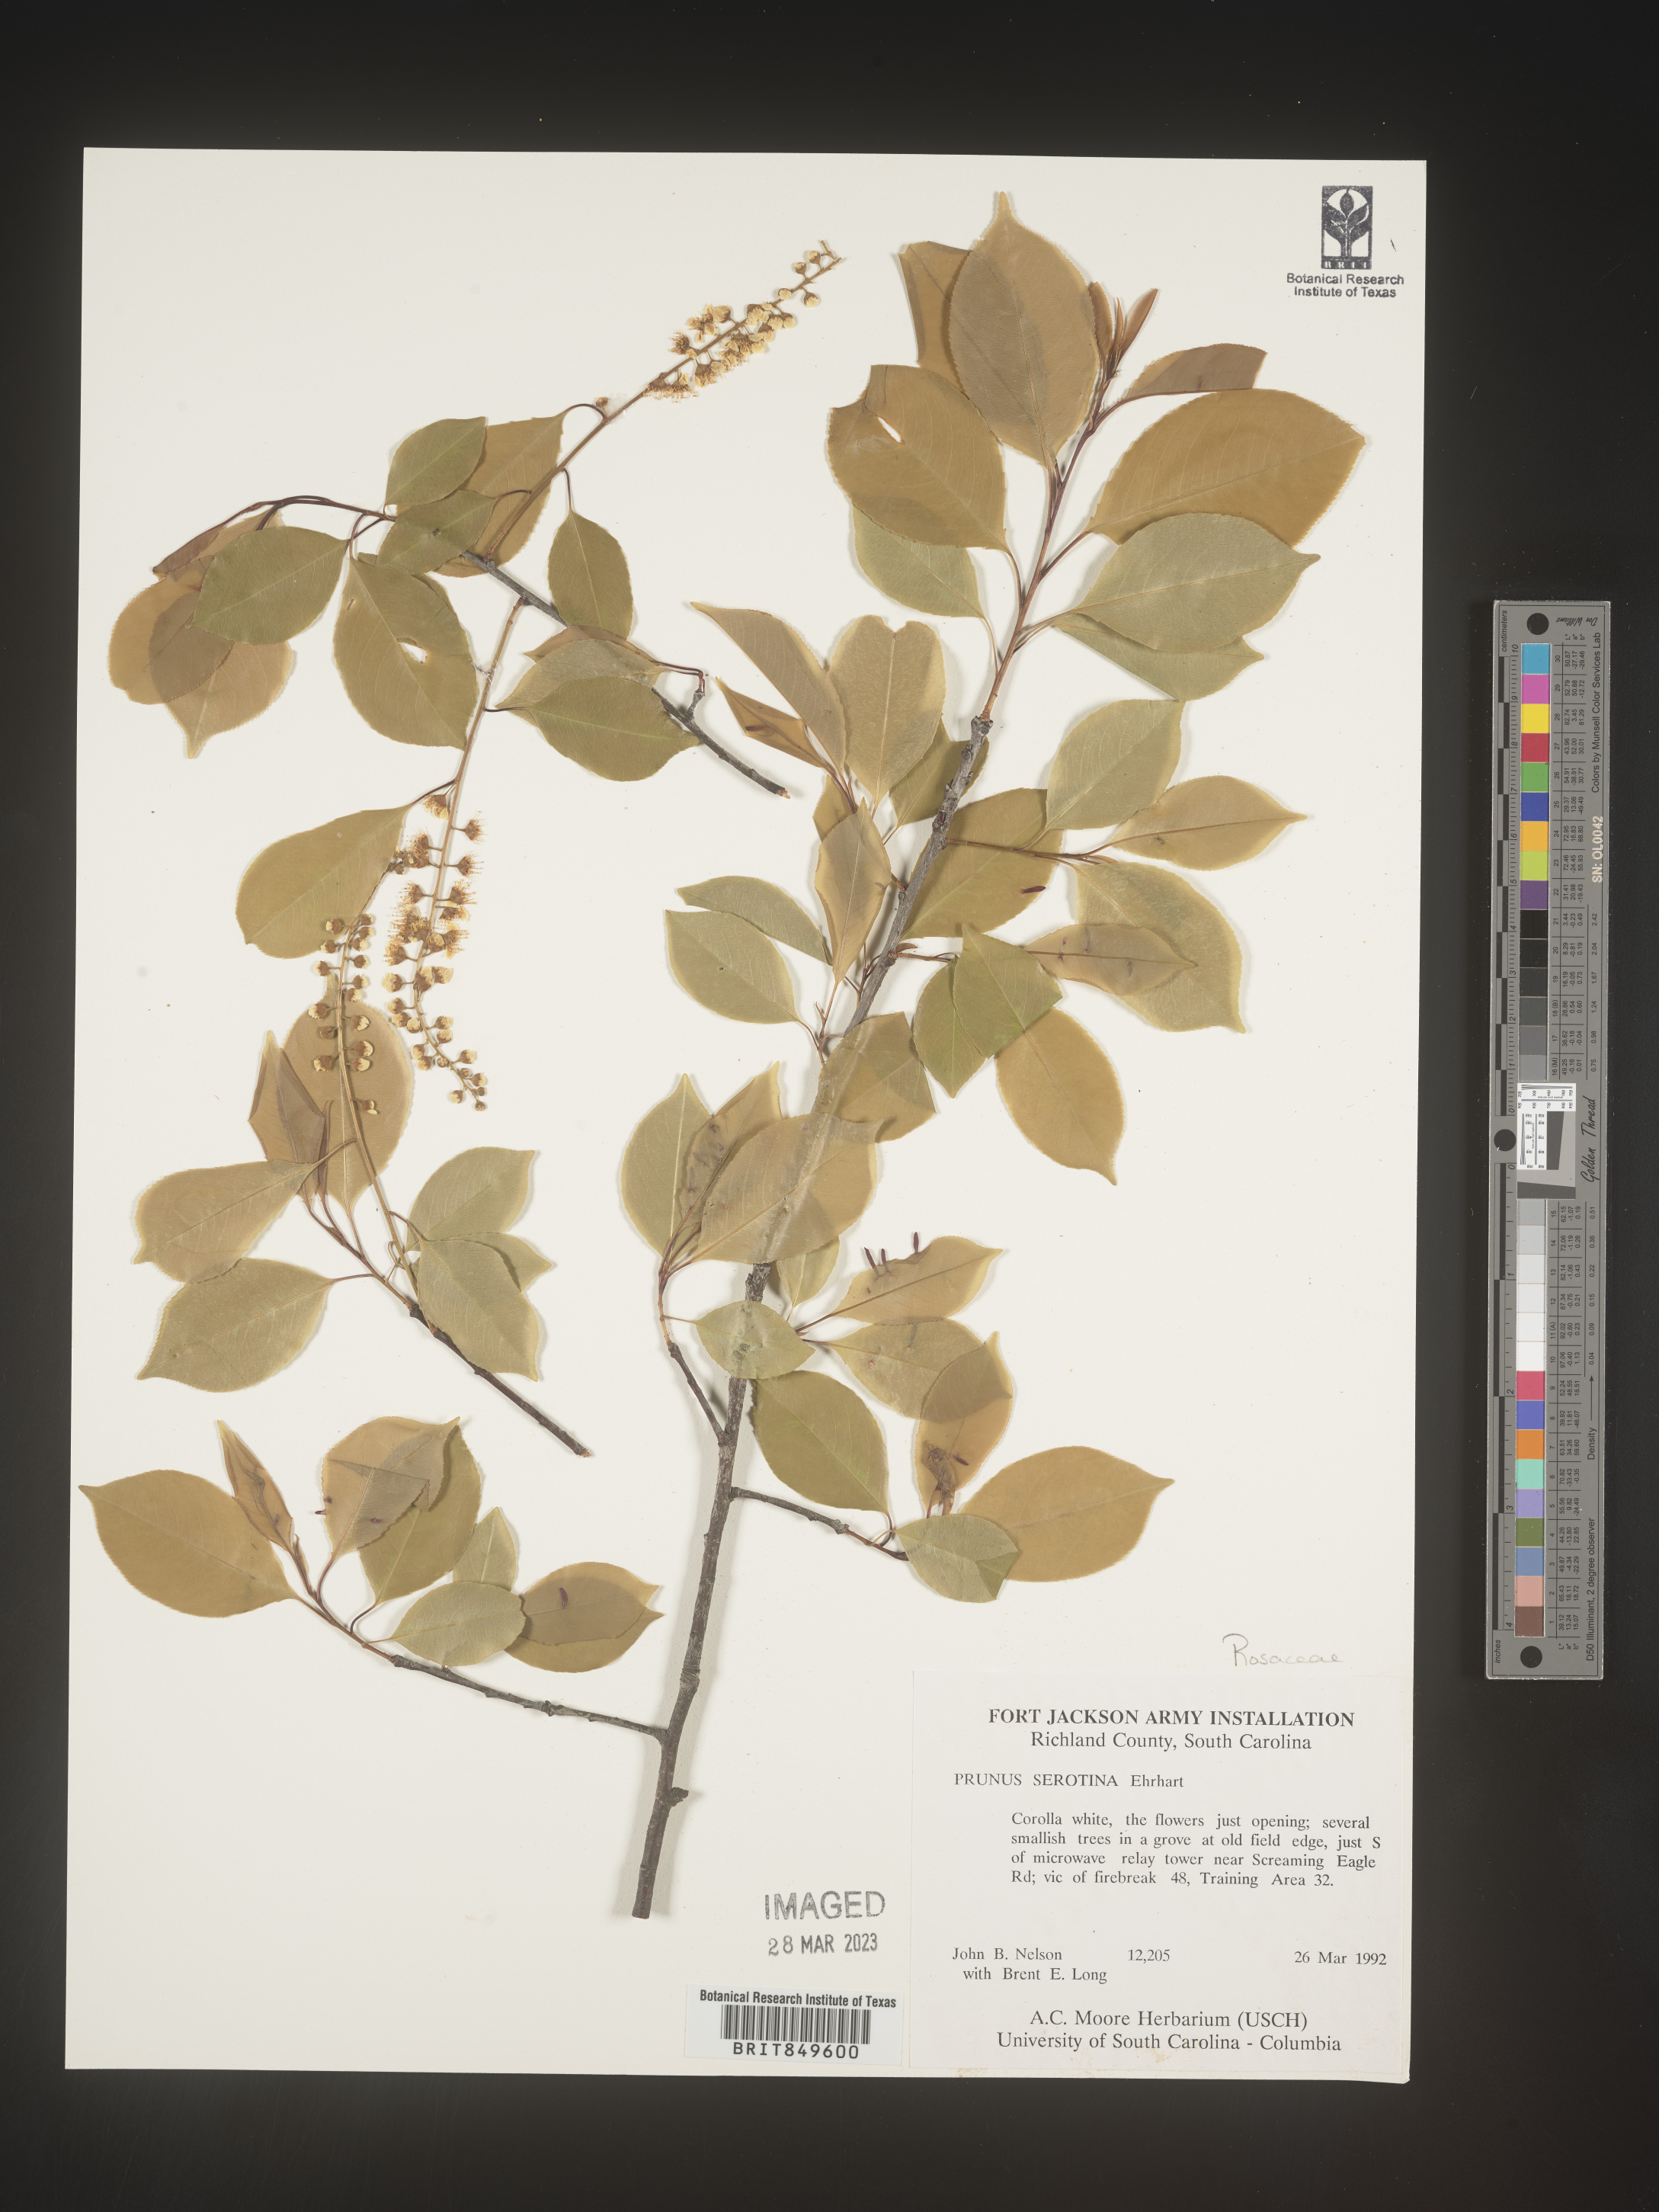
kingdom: Plantae
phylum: Tracheophyta
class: Magnoliopsida
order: Rosales
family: Rosaceae
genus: Prunus
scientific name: Prunus serotina
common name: Black cherry
